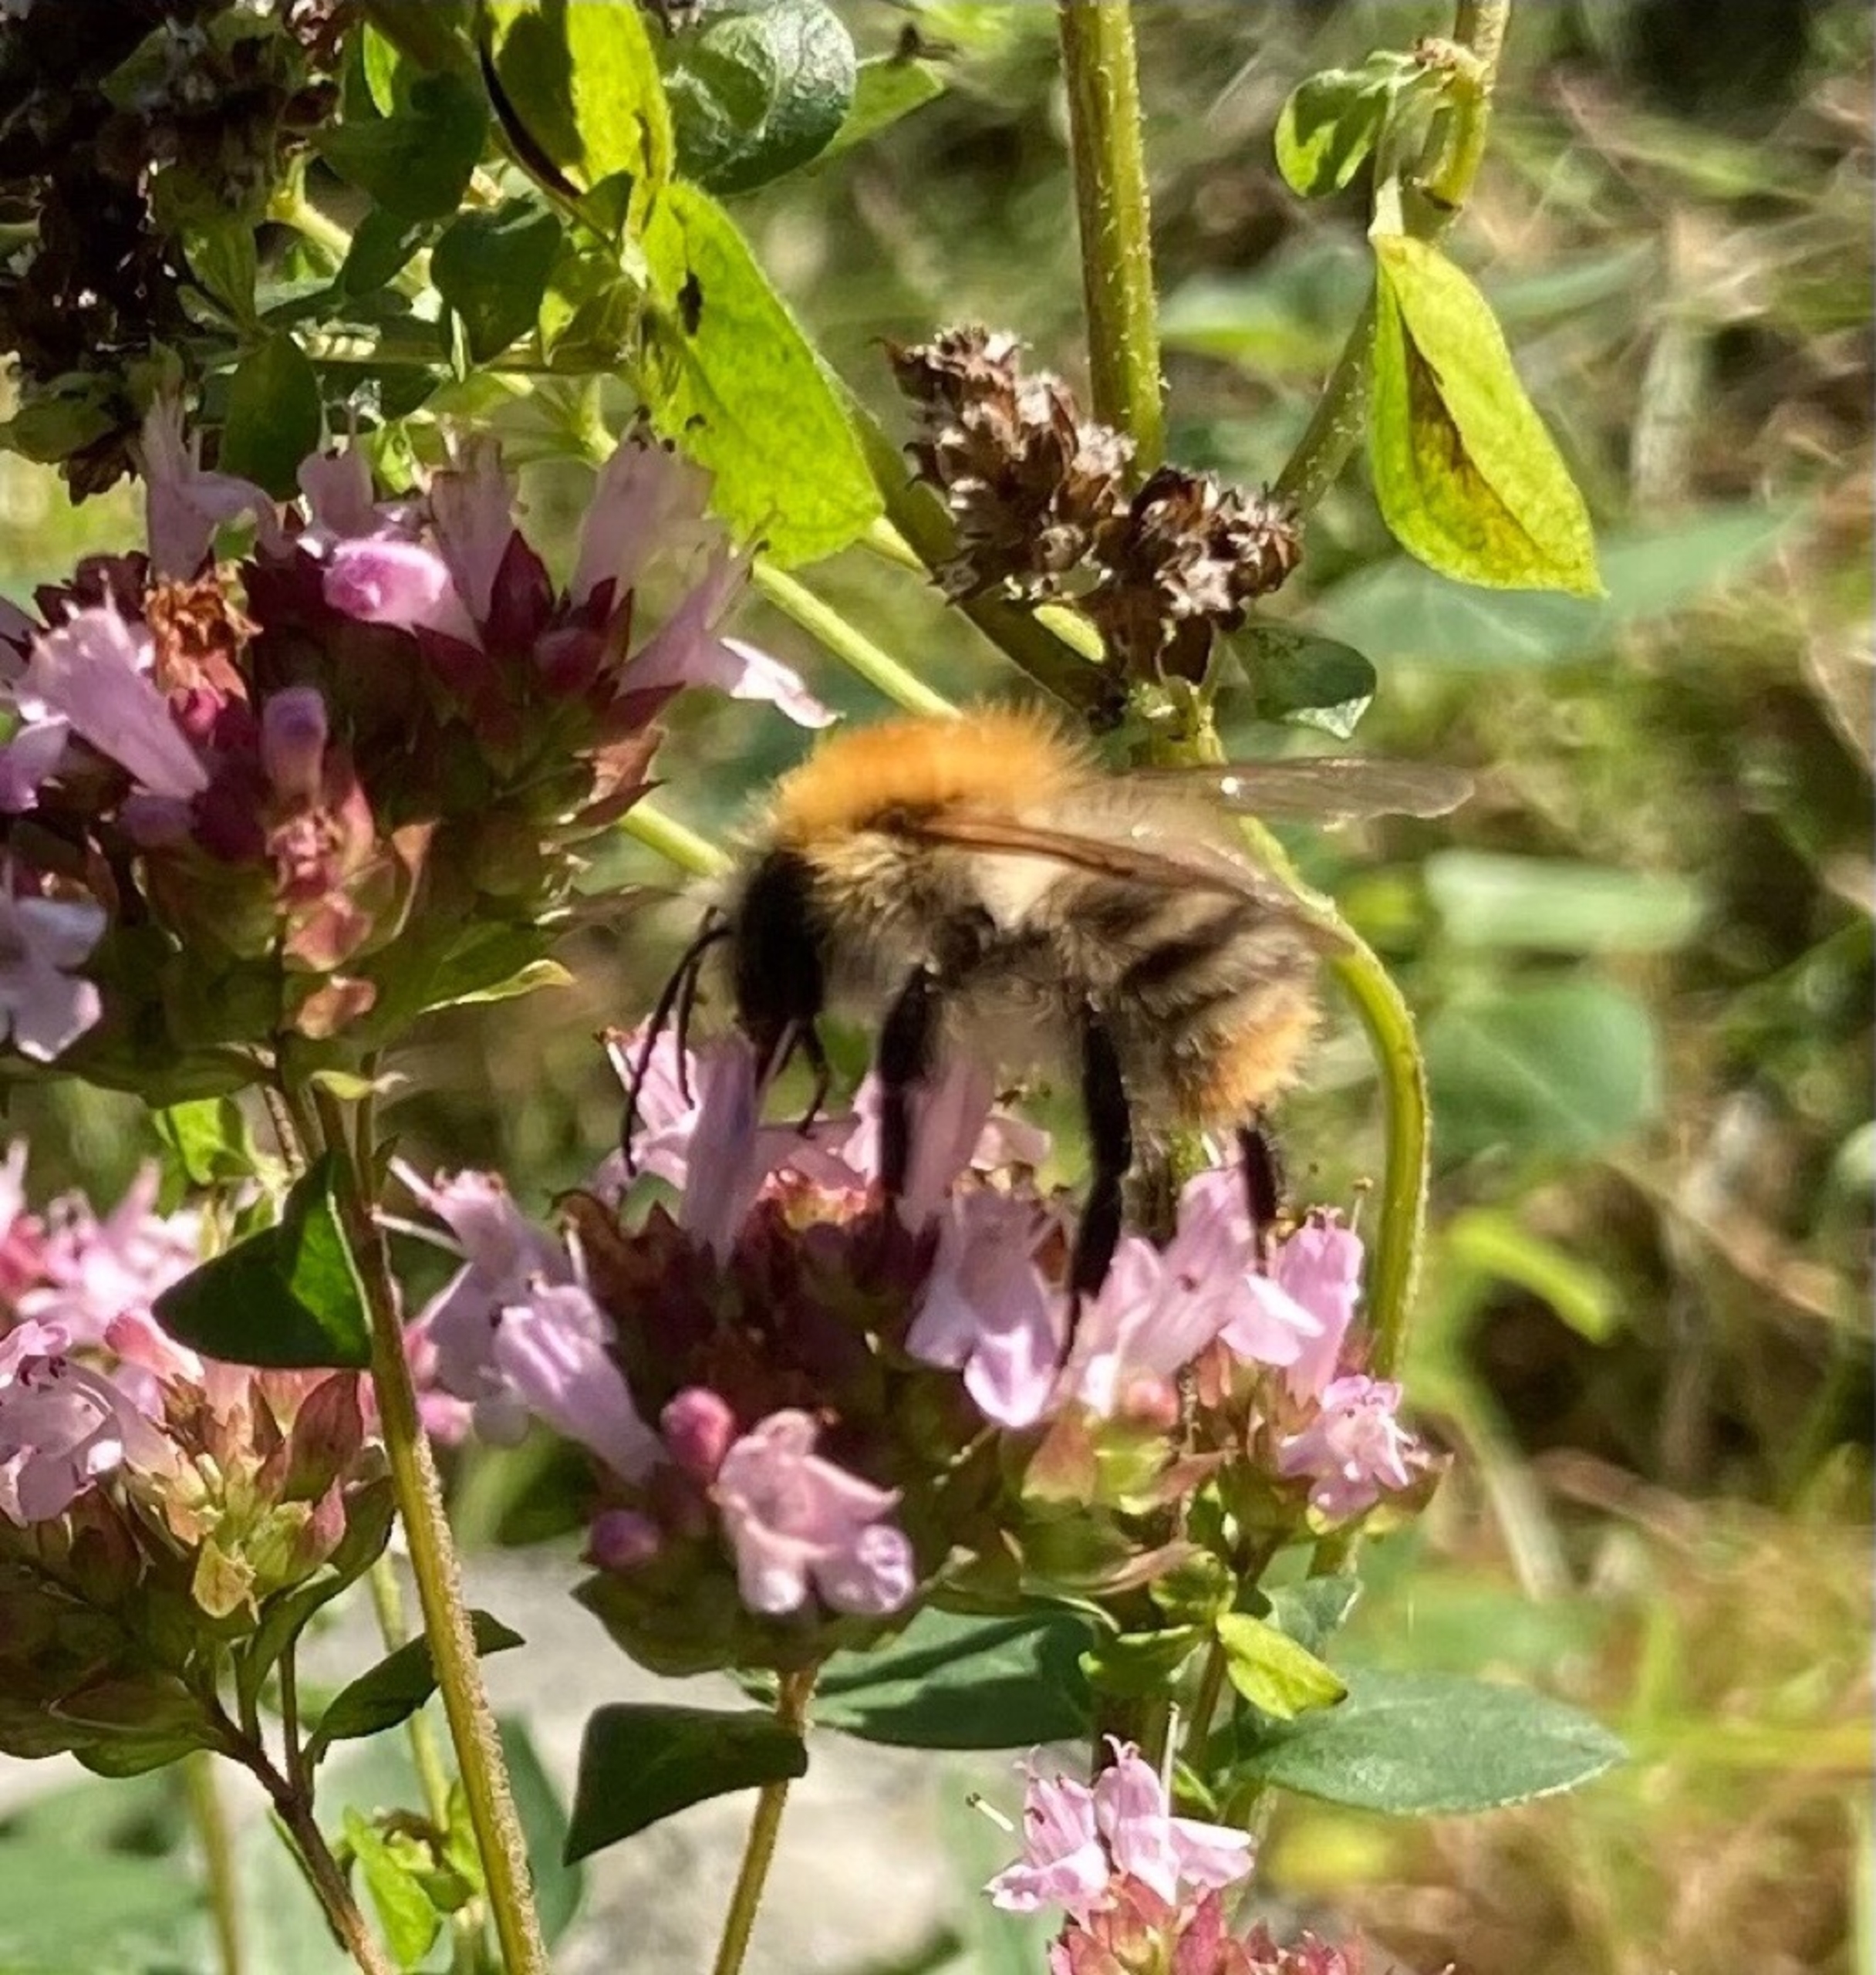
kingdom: Animalia
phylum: Arthropoda
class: Insecta
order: Hymenoptera
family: Apidae
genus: Bombus
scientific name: Bombus pascuorum
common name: Agerhumle
